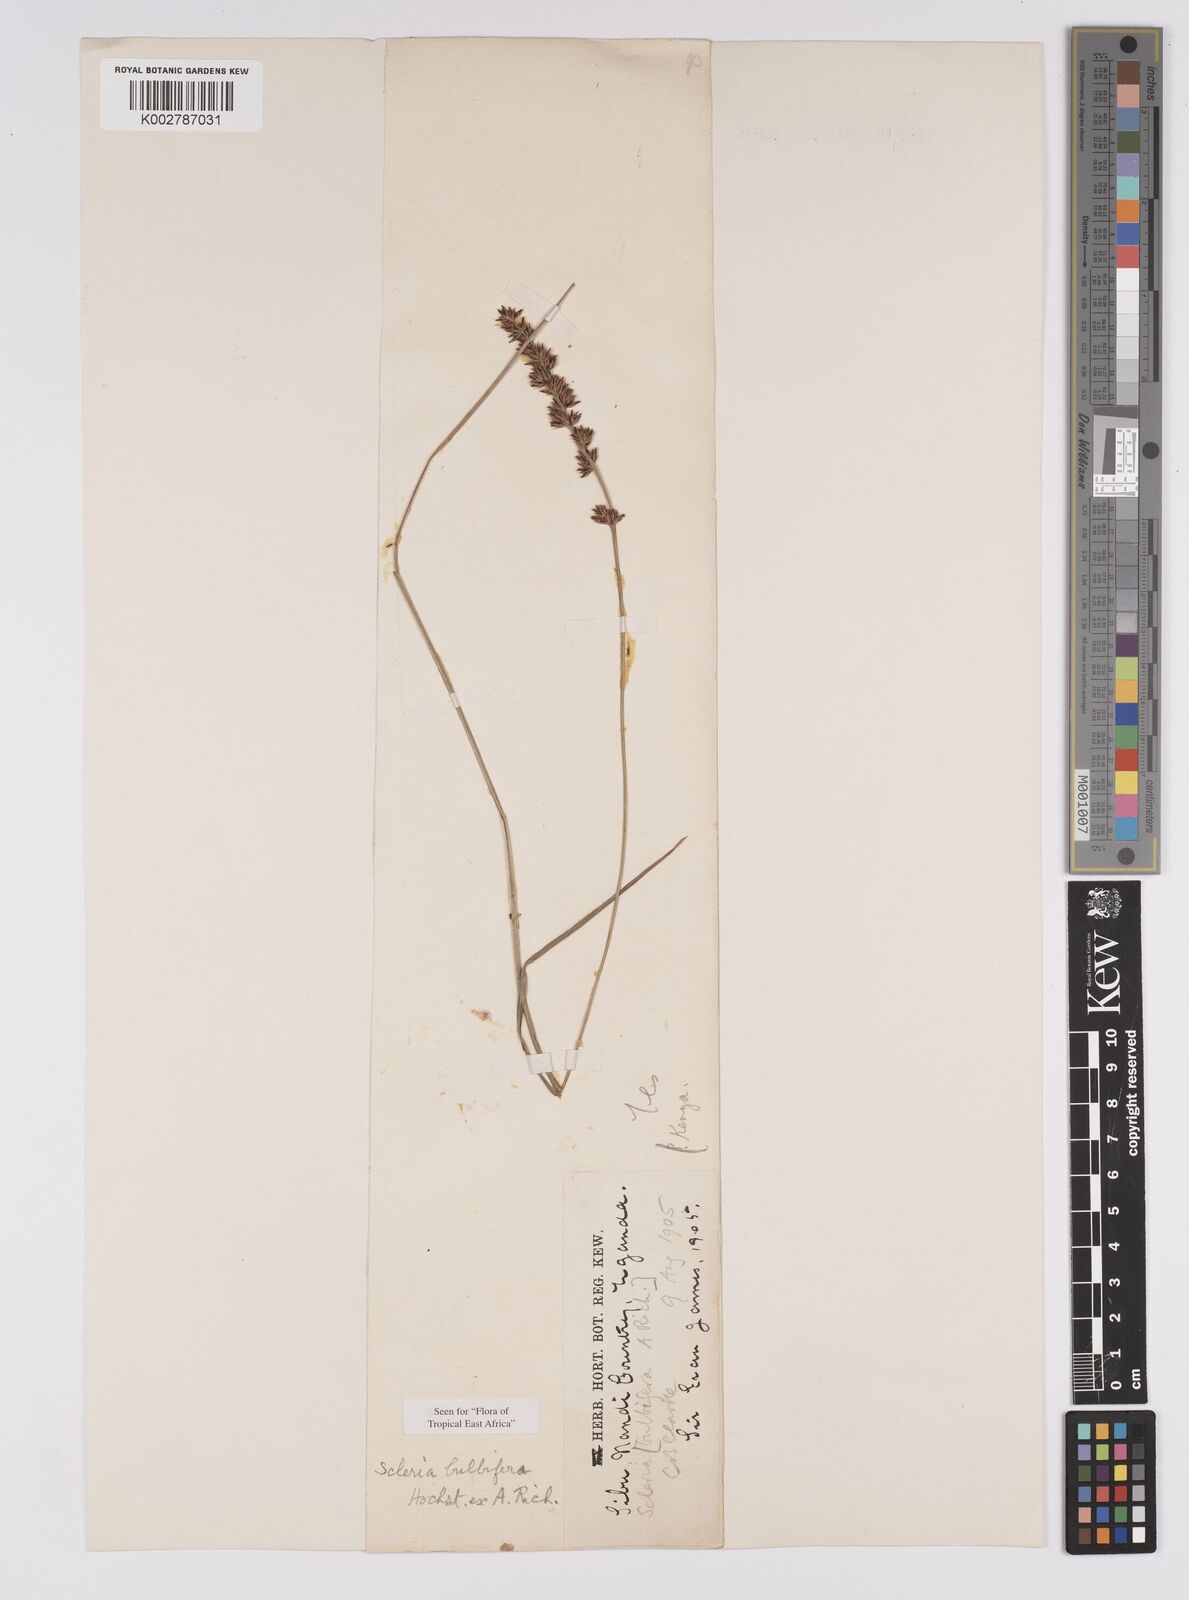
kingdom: Plantae
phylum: Tracheophyta
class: Liliopsida
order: Poales
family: Cyperaceae
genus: Scleria
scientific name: Scleria bulbifera
